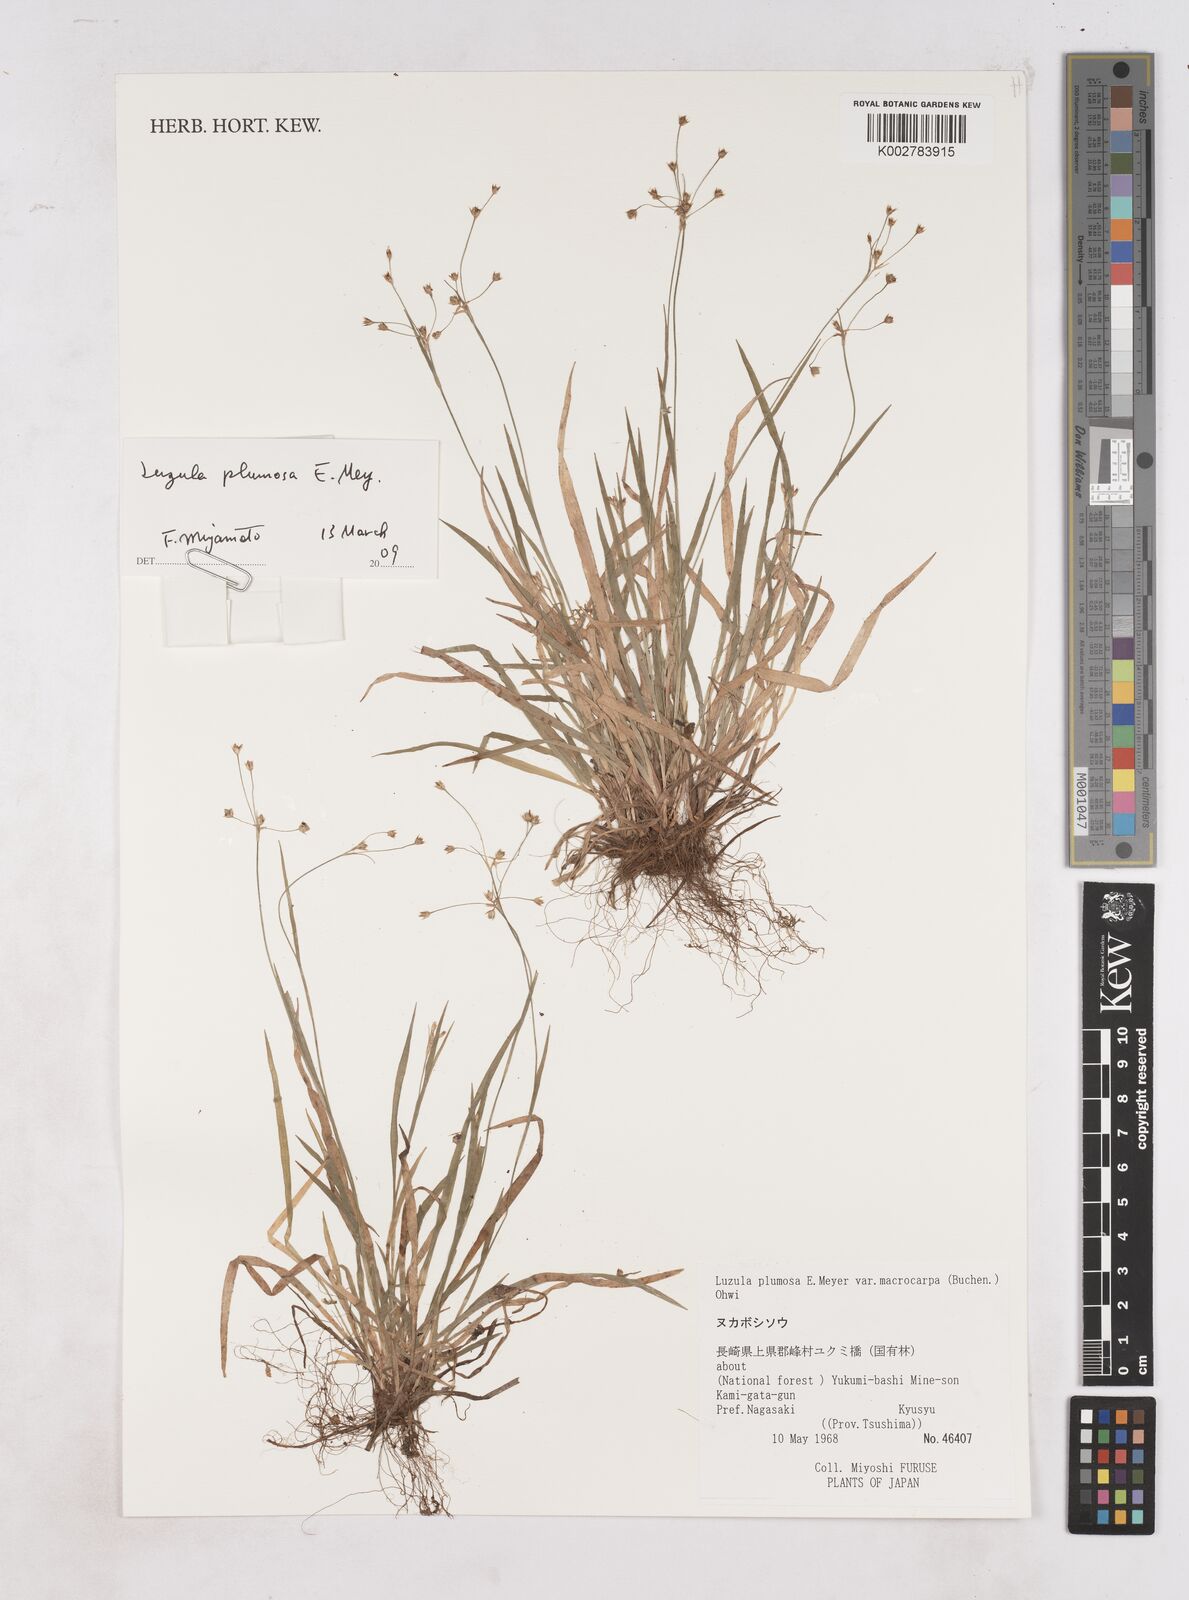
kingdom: Plantae
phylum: Tracheophyta
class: Liliopsida
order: Poales
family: Juncaceae
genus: Luzula
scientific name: Luzula plumosa
